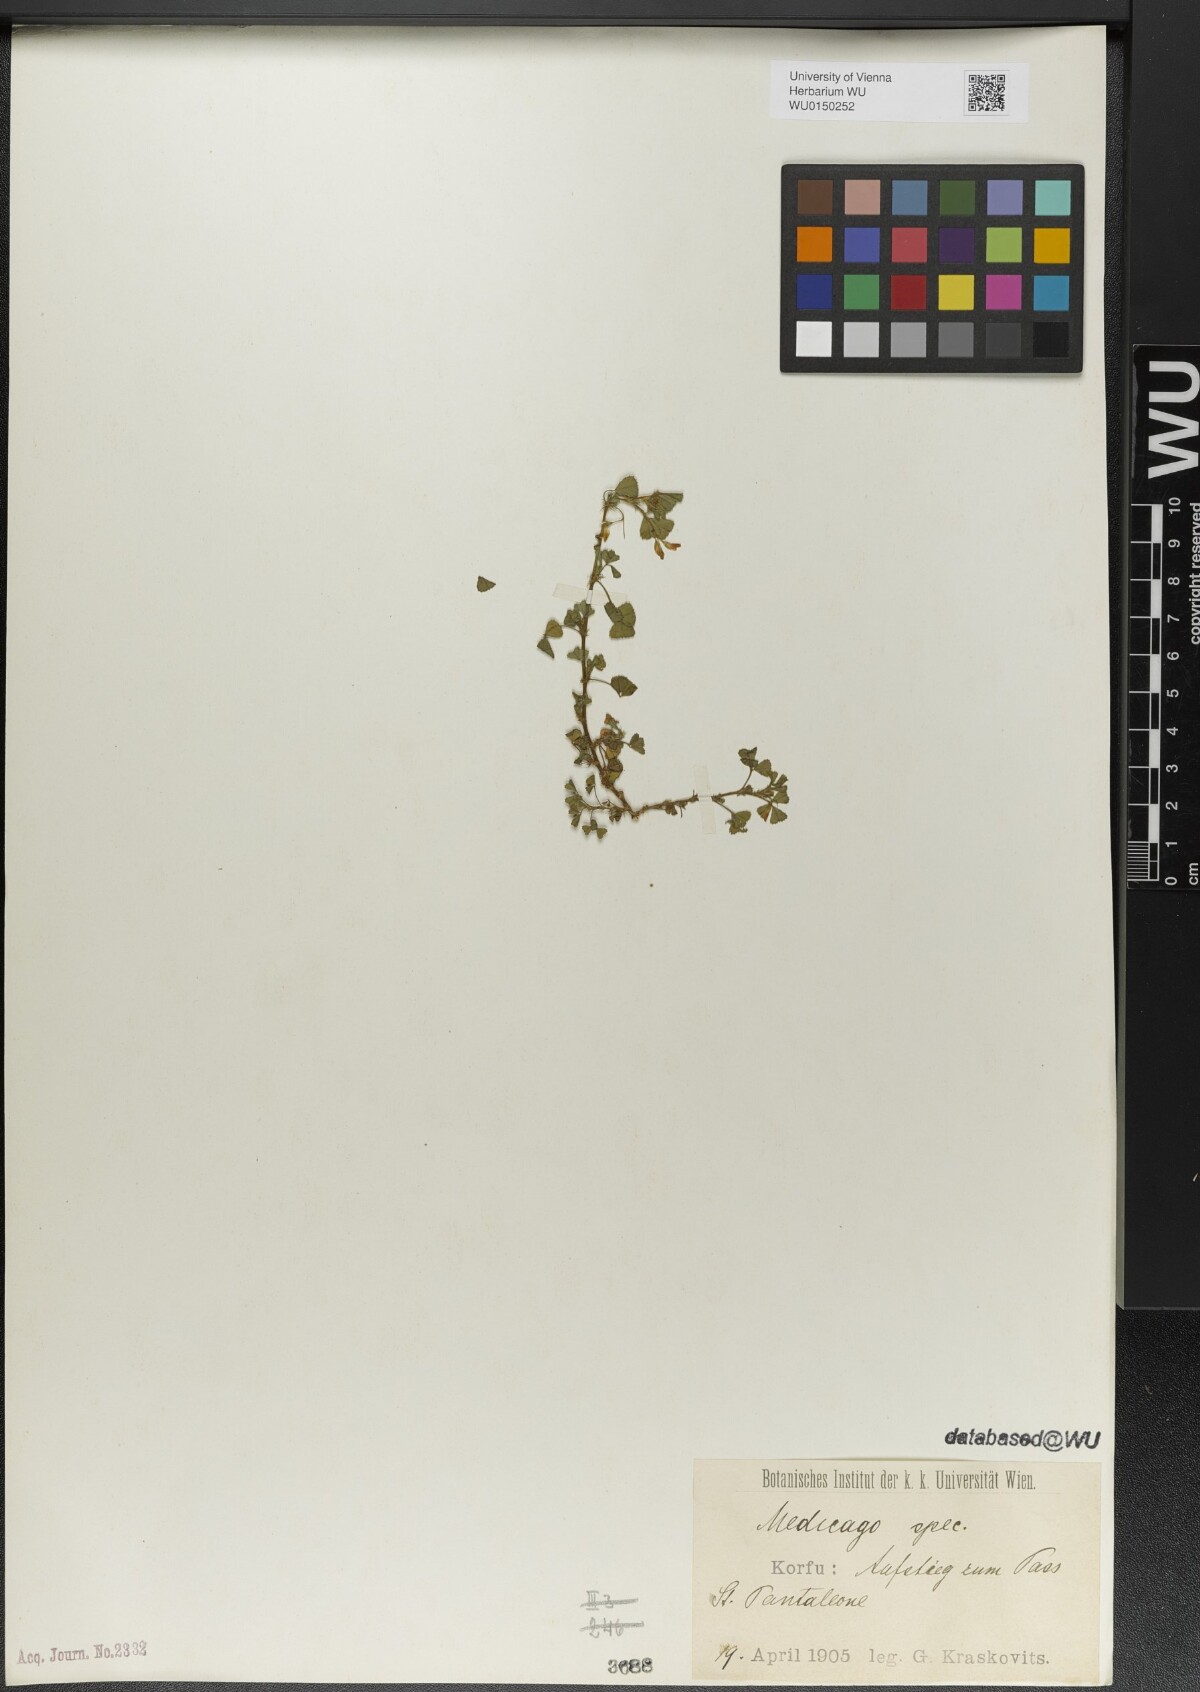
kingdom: Plantae
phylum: Tracheophyta
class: Magnoliopsida
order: Fabales
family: Fabaceae
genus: Medicago
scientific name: Medicago
